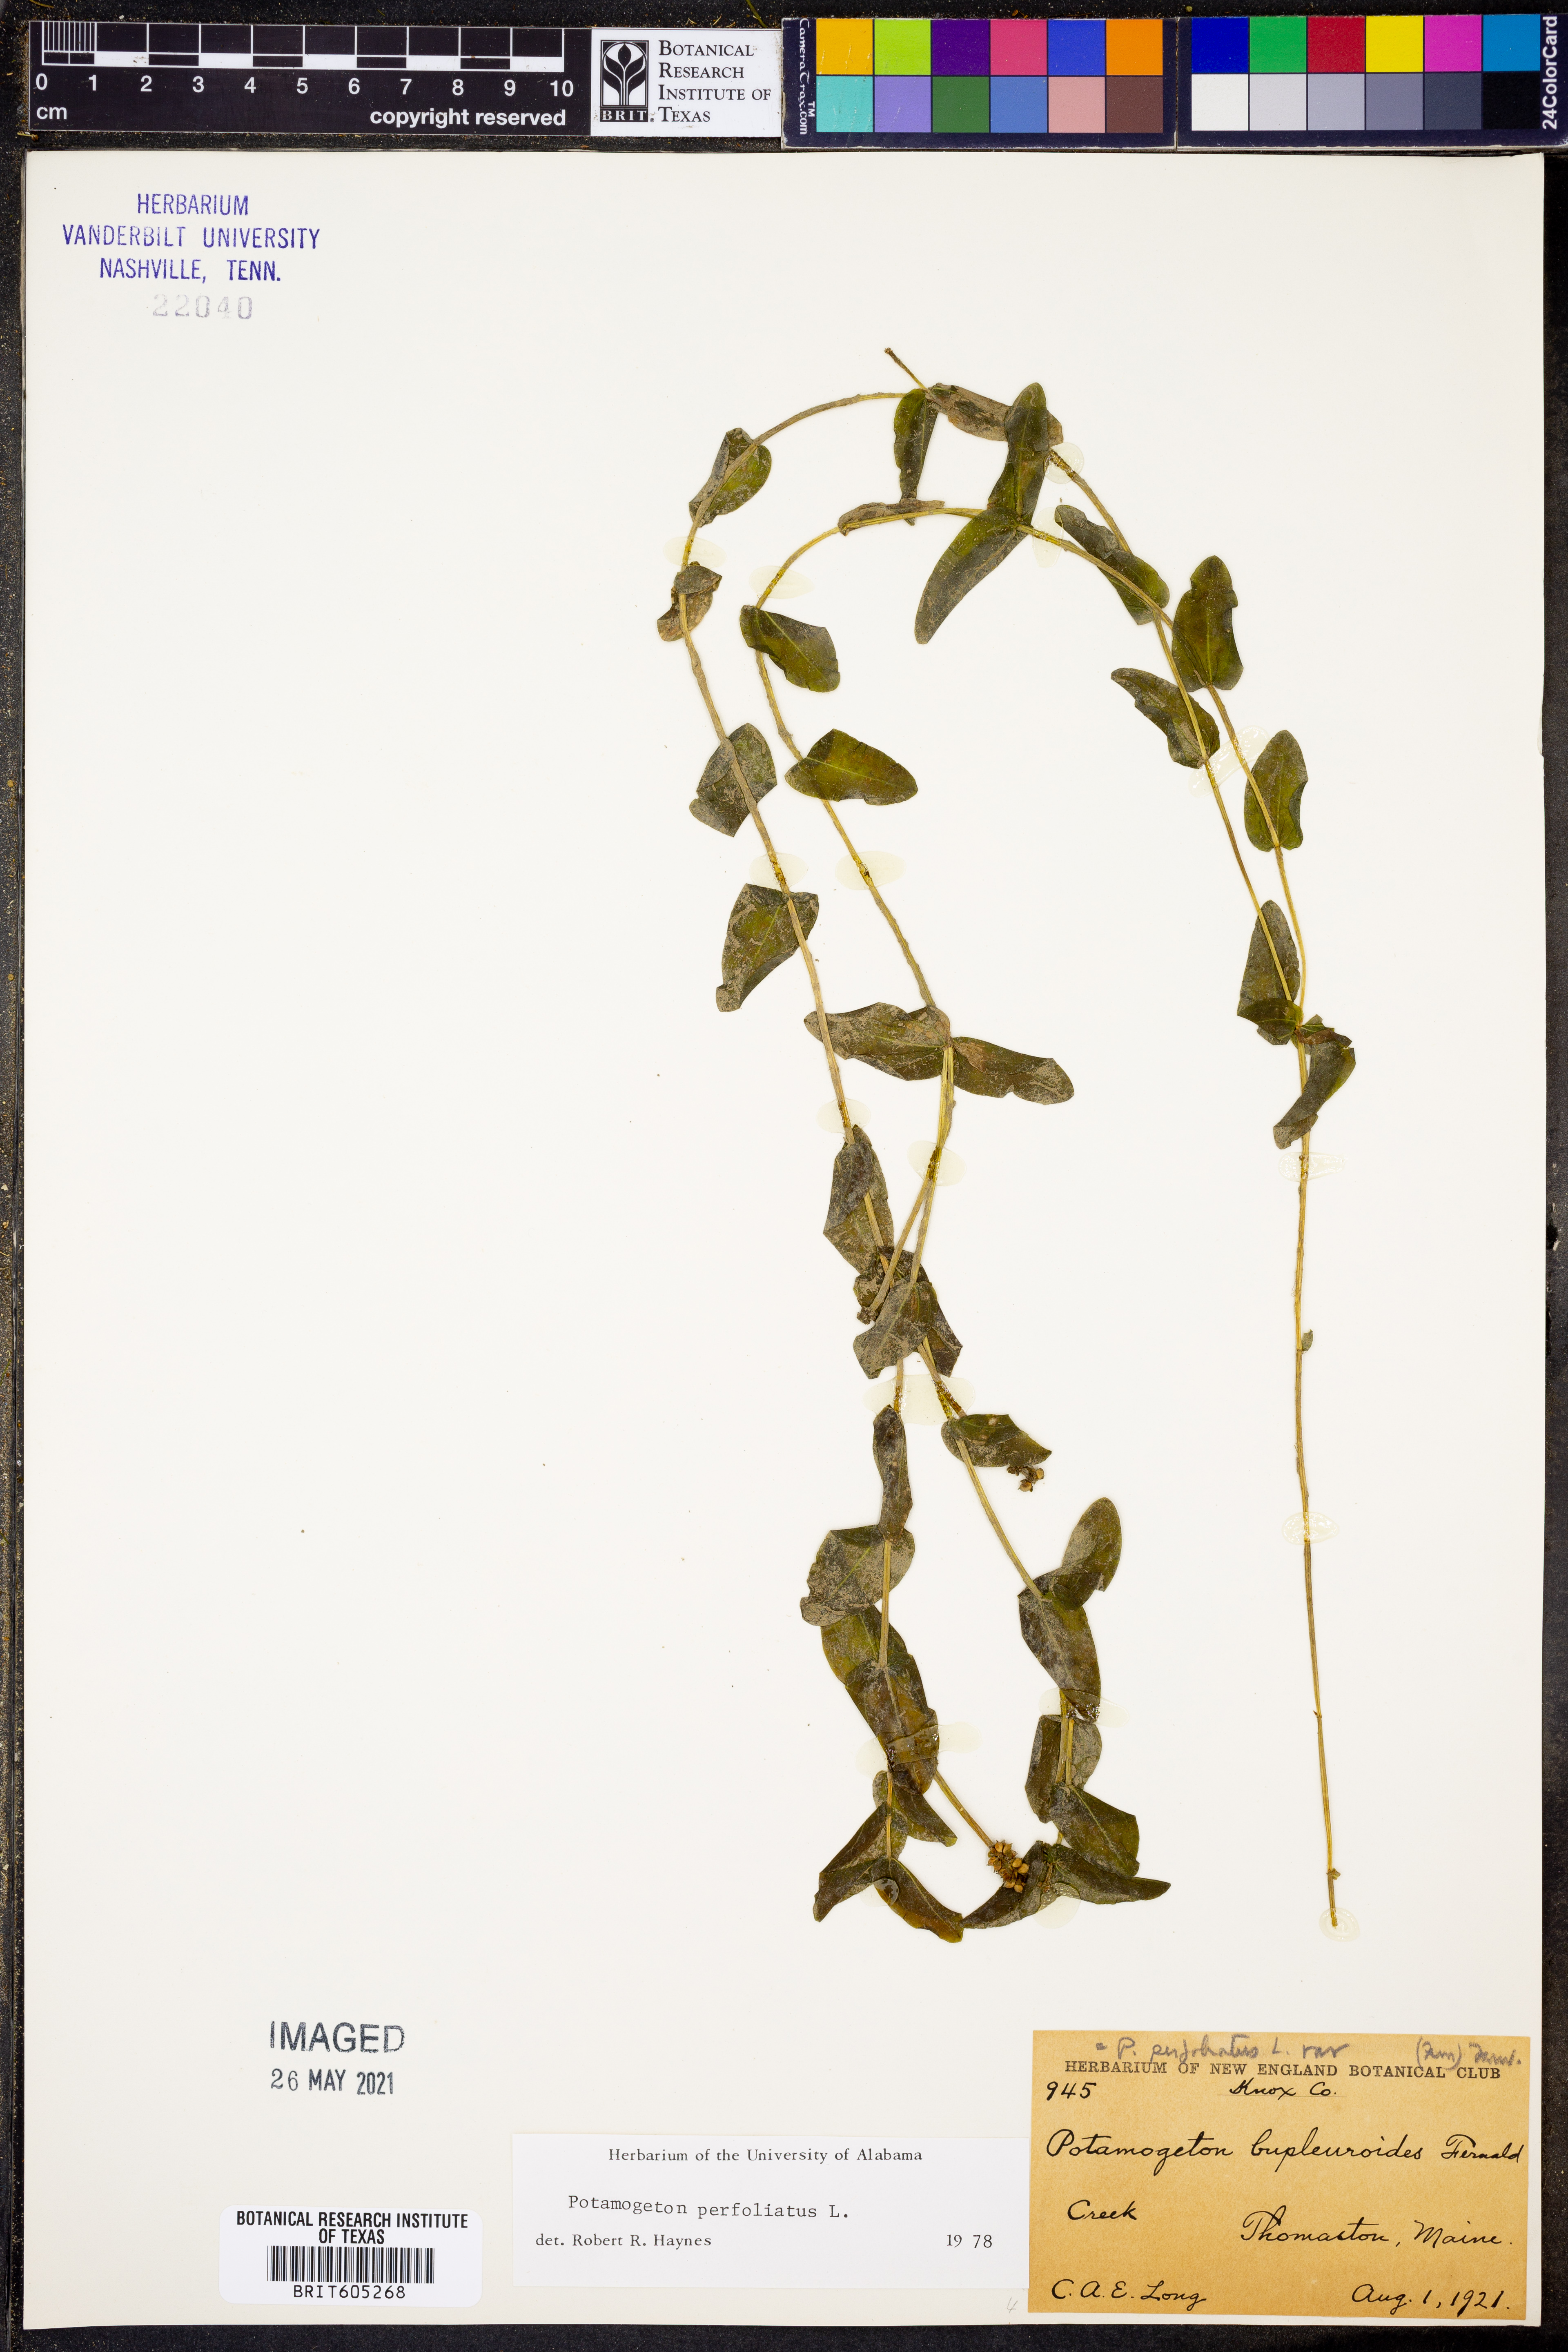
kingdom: Plantae
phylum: Tracheophyta
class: Liliopsida
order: Alismatales
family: Potamogetonaceae
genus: Potamogeton
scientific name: Potamogeton perfoliatus
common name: Perfoliate pondweed
